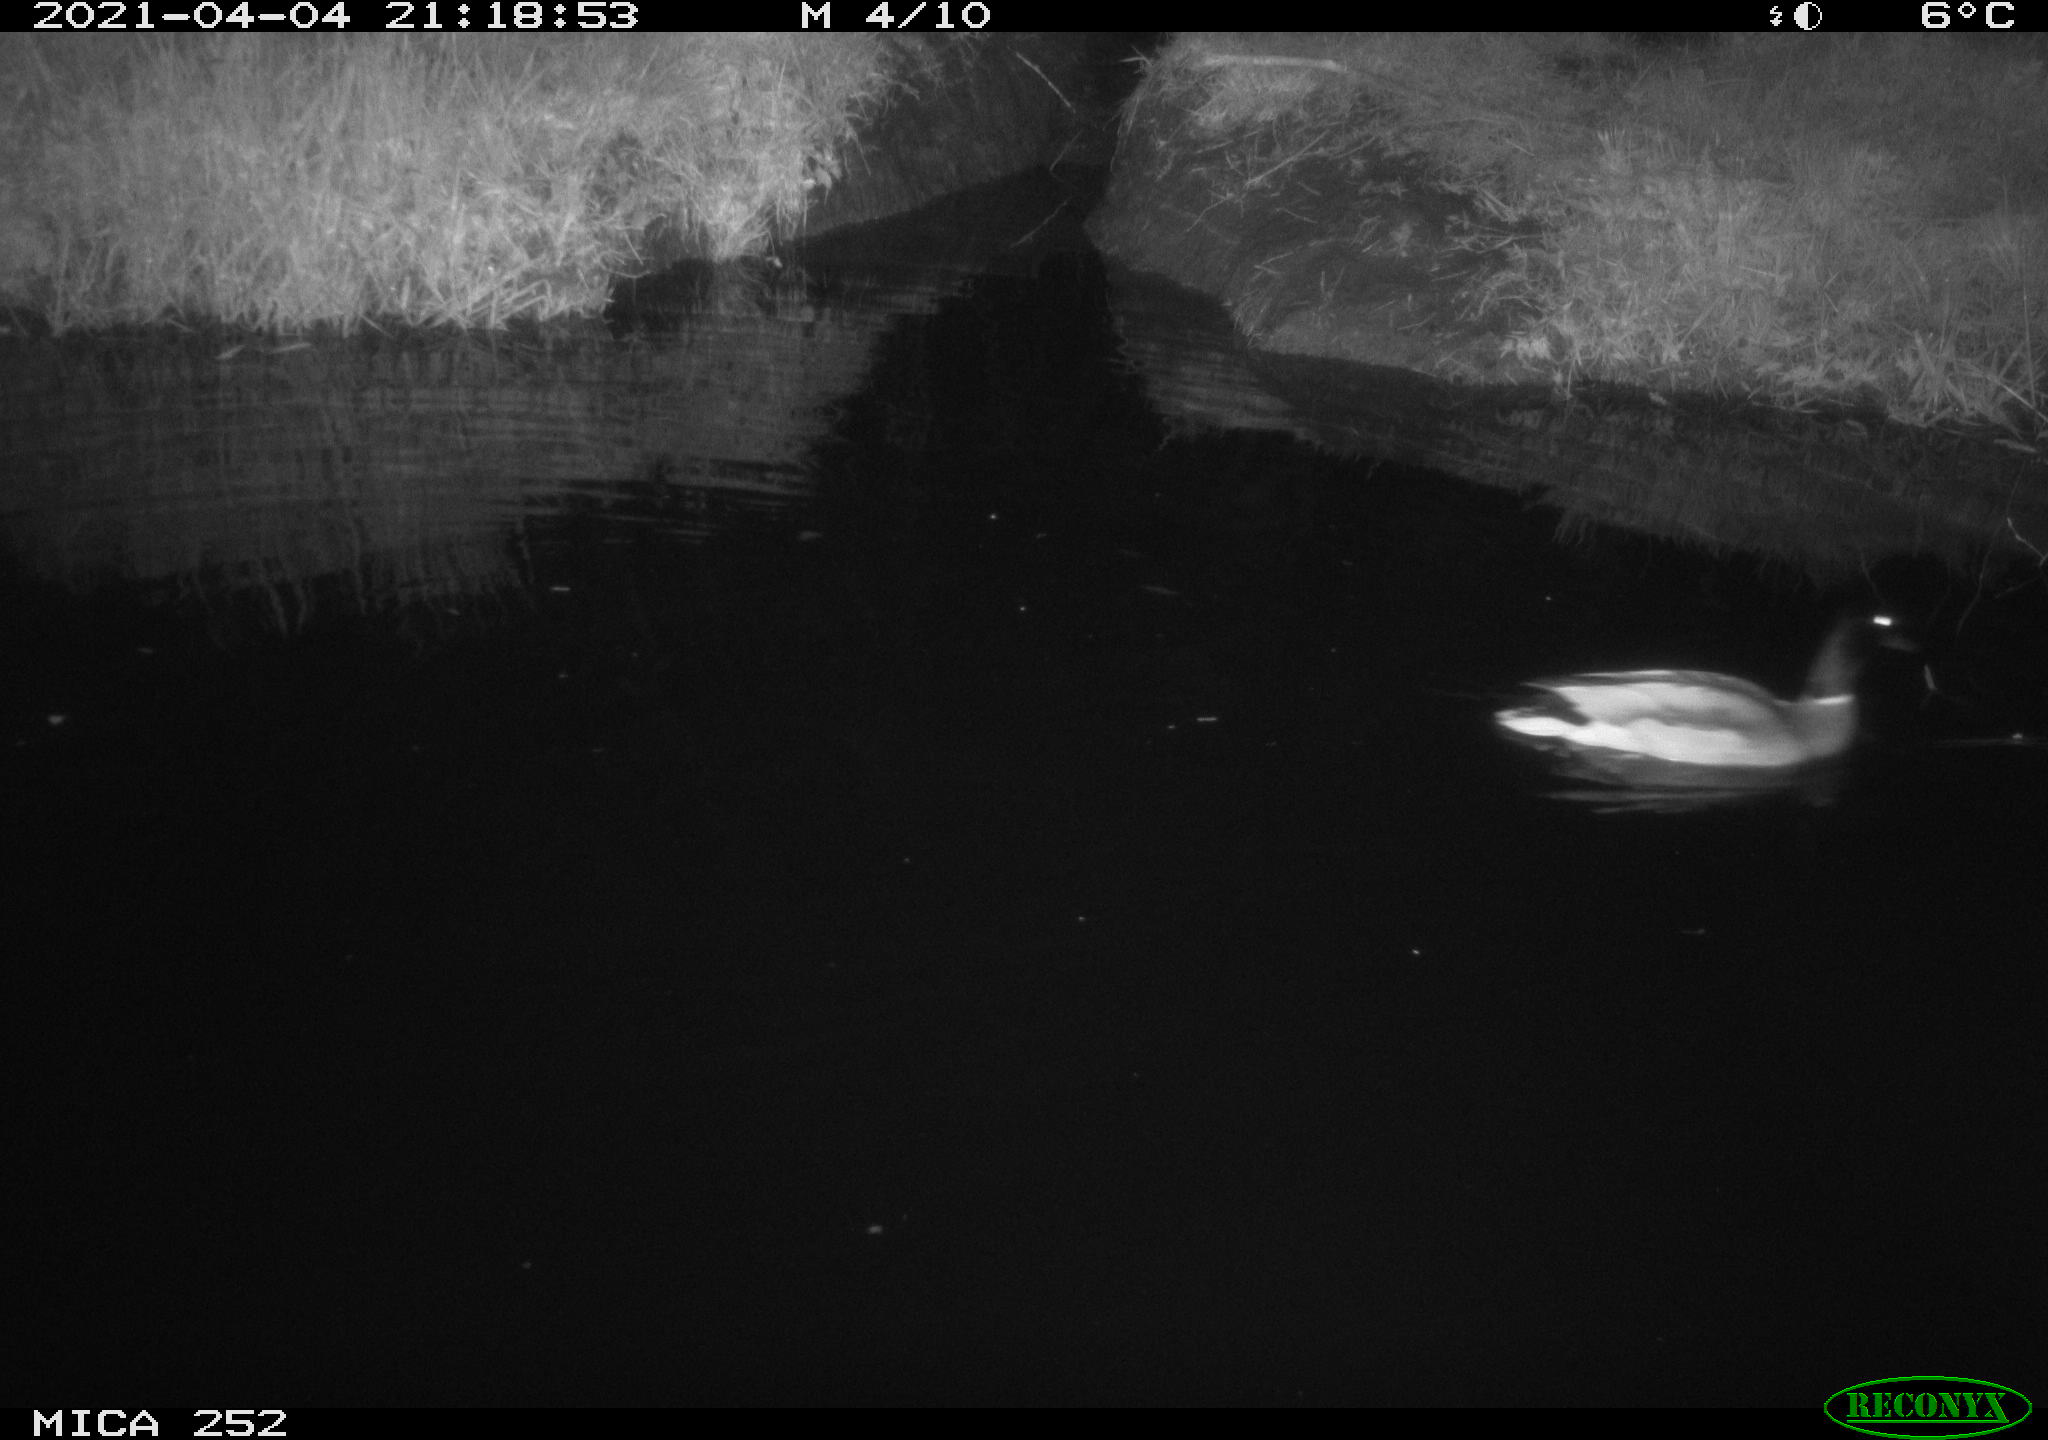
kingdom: Animalia
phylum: Chordata
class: Aves
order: Anseriformes
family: Anatidae
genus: Anas
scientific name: Anas platyrhynchos
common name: Mallard
